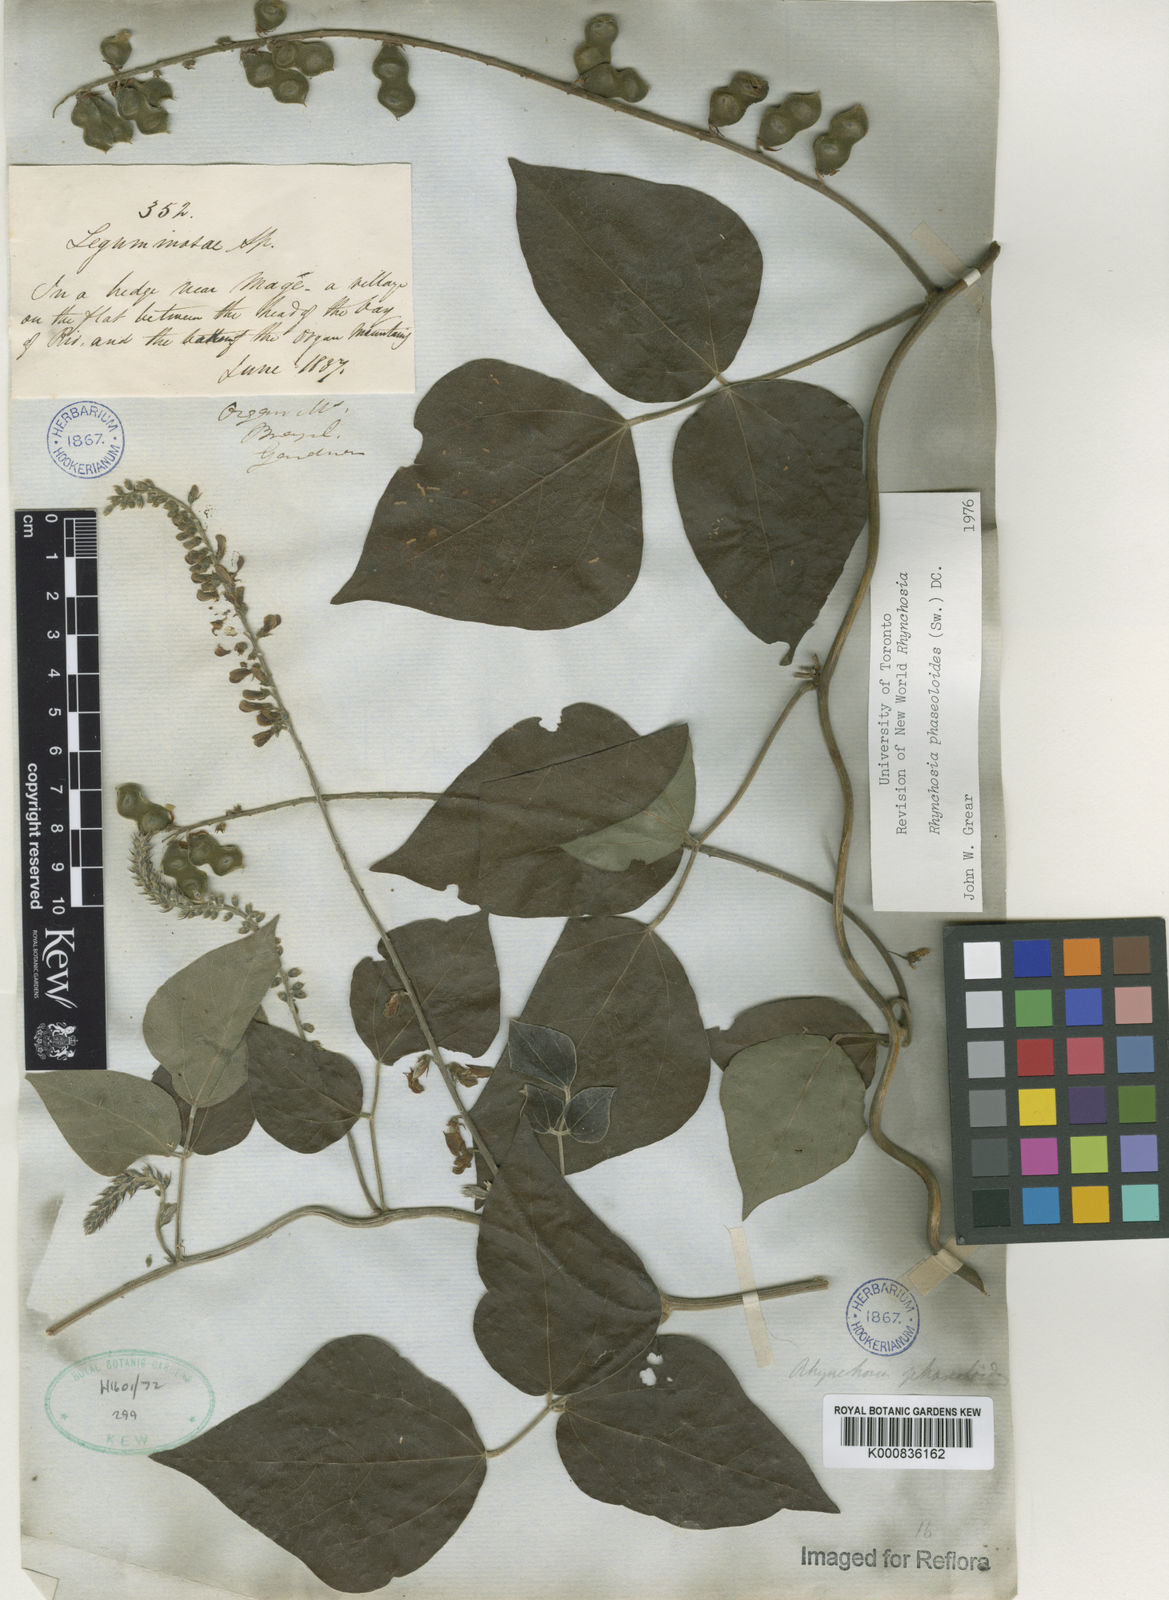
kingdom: Plantae
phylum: Tracheophyta
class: Magnoliopsida
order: Fabales
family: Fabaceae
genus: Rhynchosia
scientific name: Rhynchosia phaseoloides
